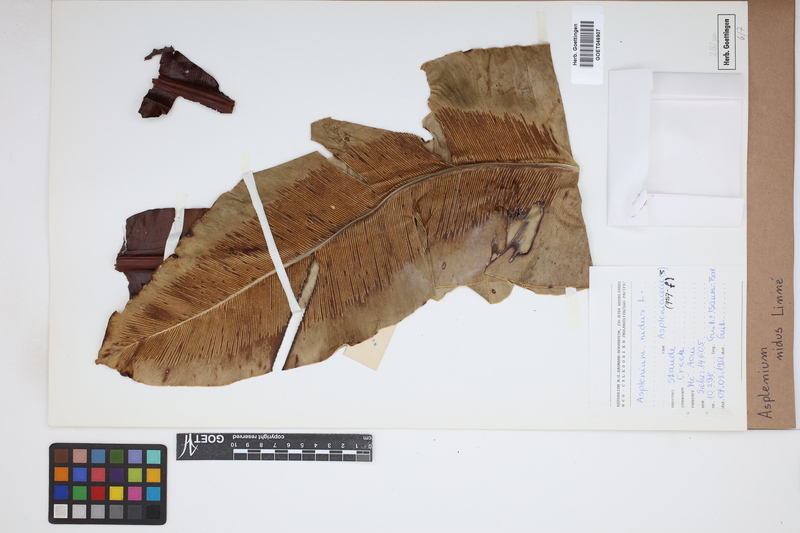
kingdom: Plantae
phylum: Tracheophyta
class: Polypodiopsida
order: Polypodiales
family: Aspleniaceae
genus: Asplenium
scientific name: Asplenium nidus
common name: Bird's-nest fern
